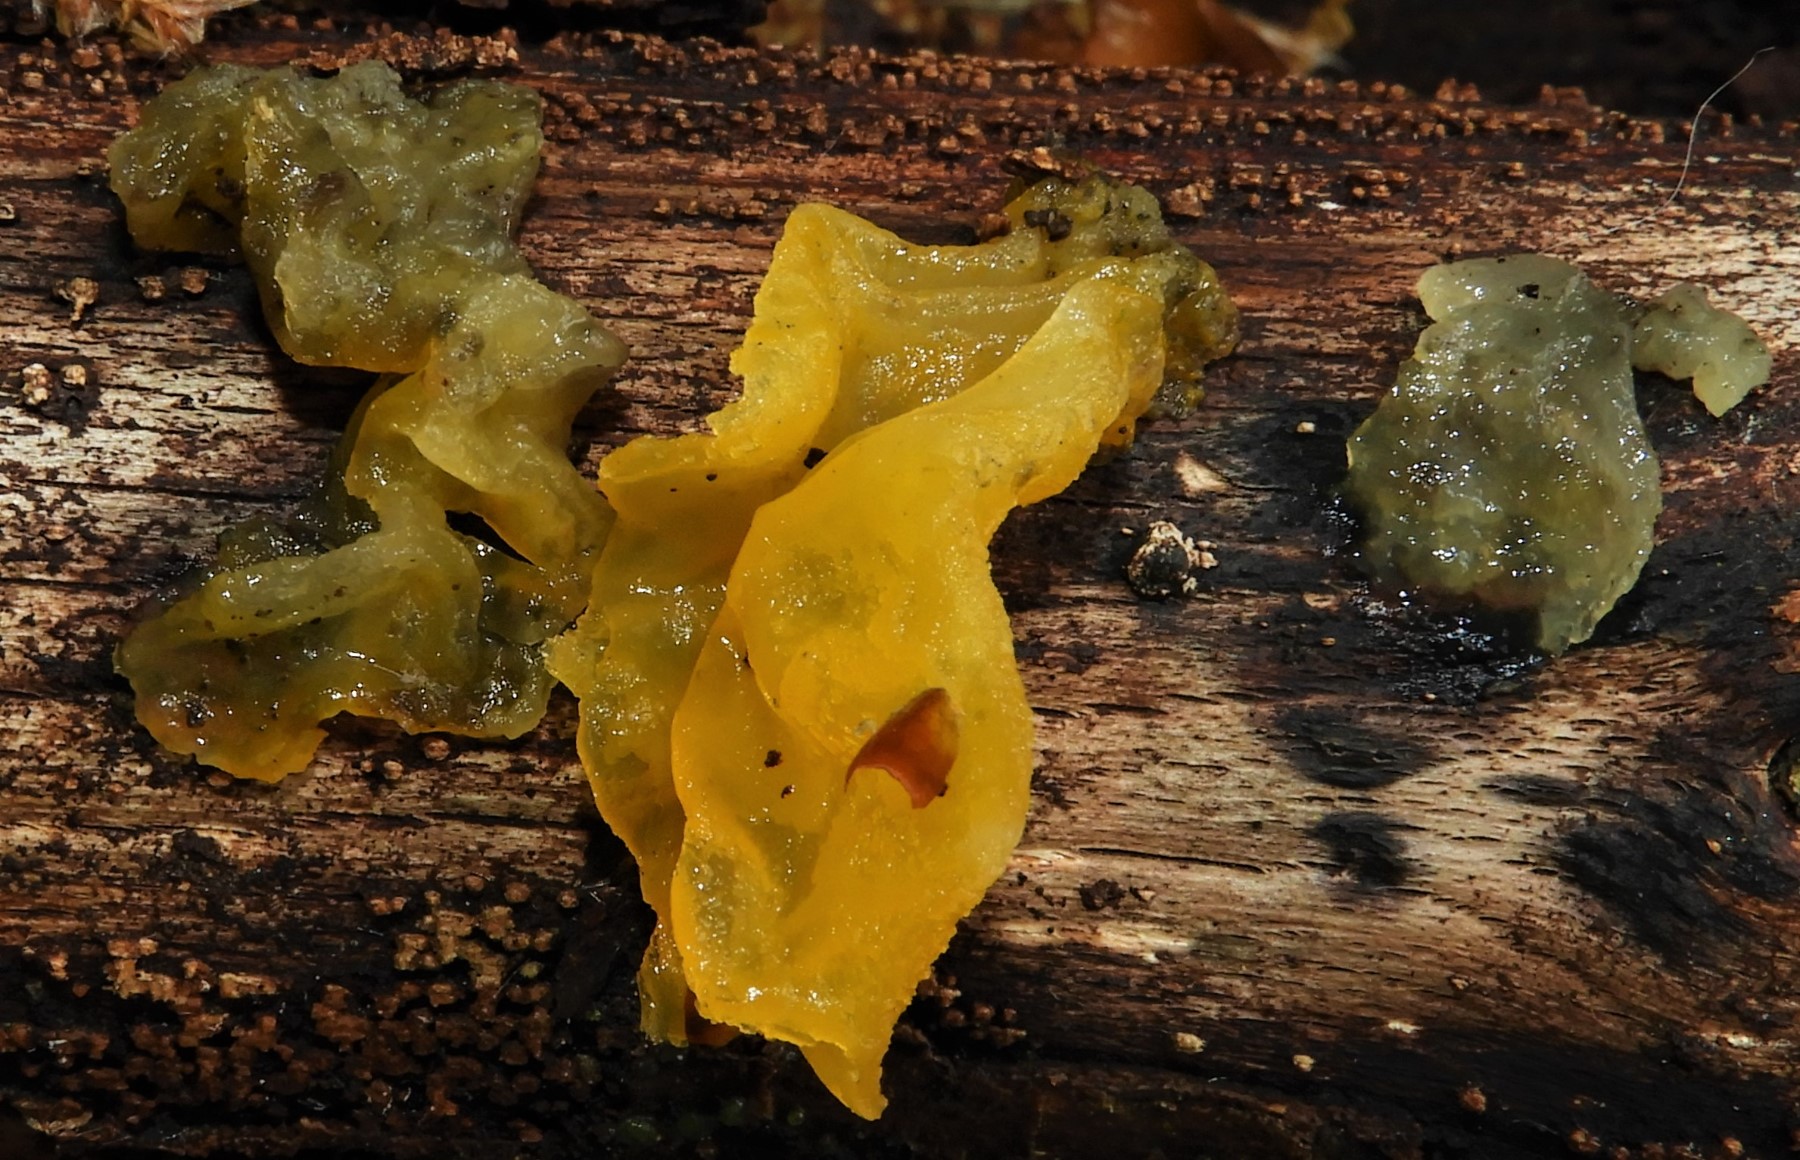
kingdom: Fungi
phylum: Basidiomycota
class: Tremellomycetes
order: Tremellales
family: Tremellaceae
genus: Tremella
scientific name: Tremella mesenterica
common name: gul bævresvamp
